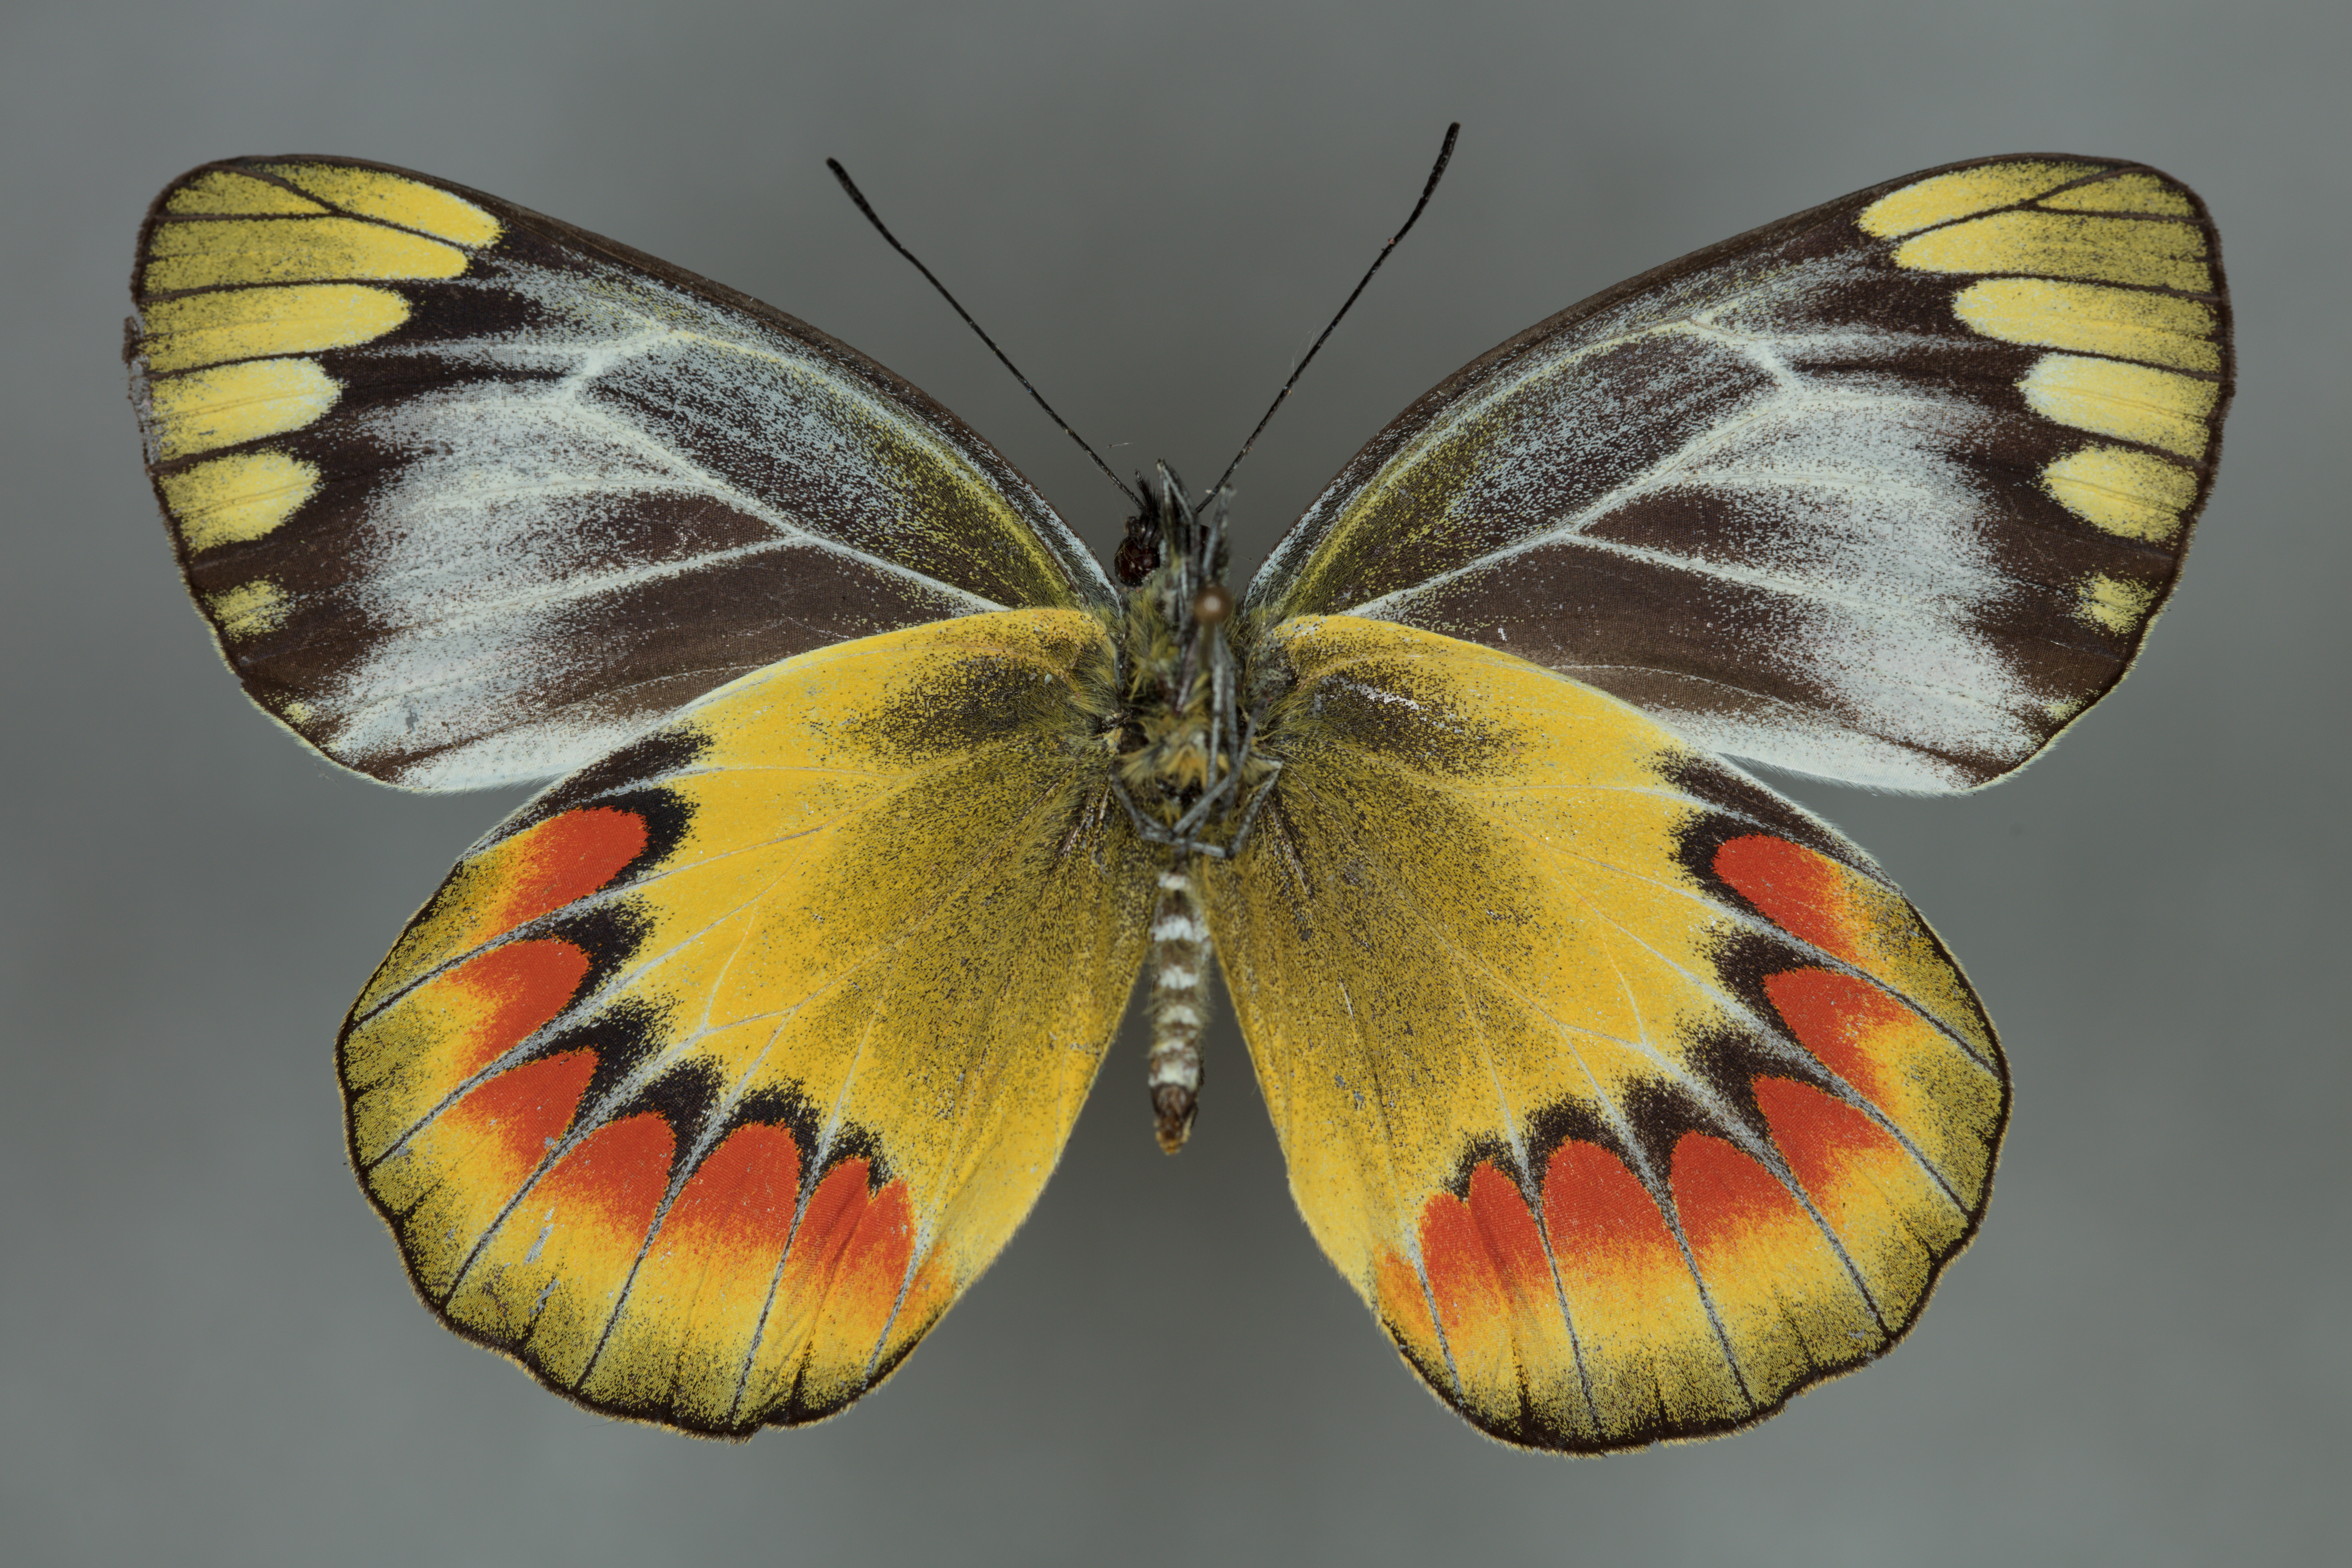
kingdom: Animalia
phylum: Arthropoda
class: Insecta
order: Lepidoptera
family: Pieridae
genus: Delias
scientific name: Delias sambawana
